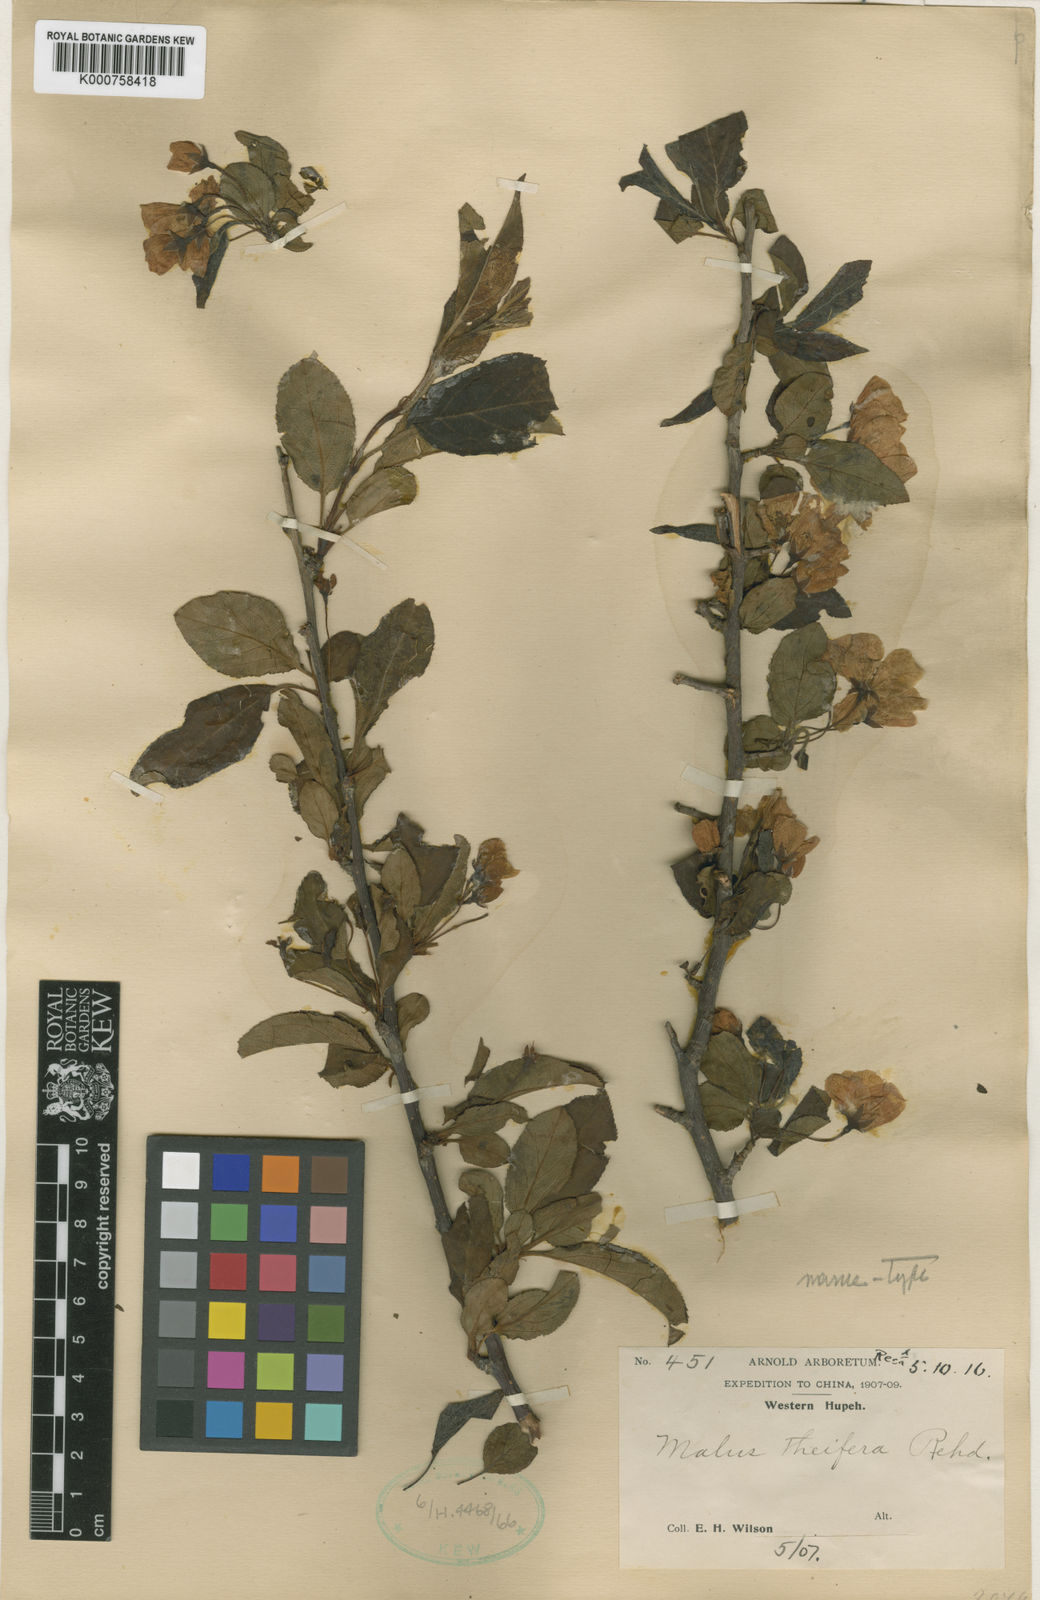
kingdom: Plantae
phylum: Tracheophyta
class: Magnoliopsida
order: Rosales
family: Rosaceae
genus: Malus
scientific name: Malus hupehensis
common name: Chinese crab apple
